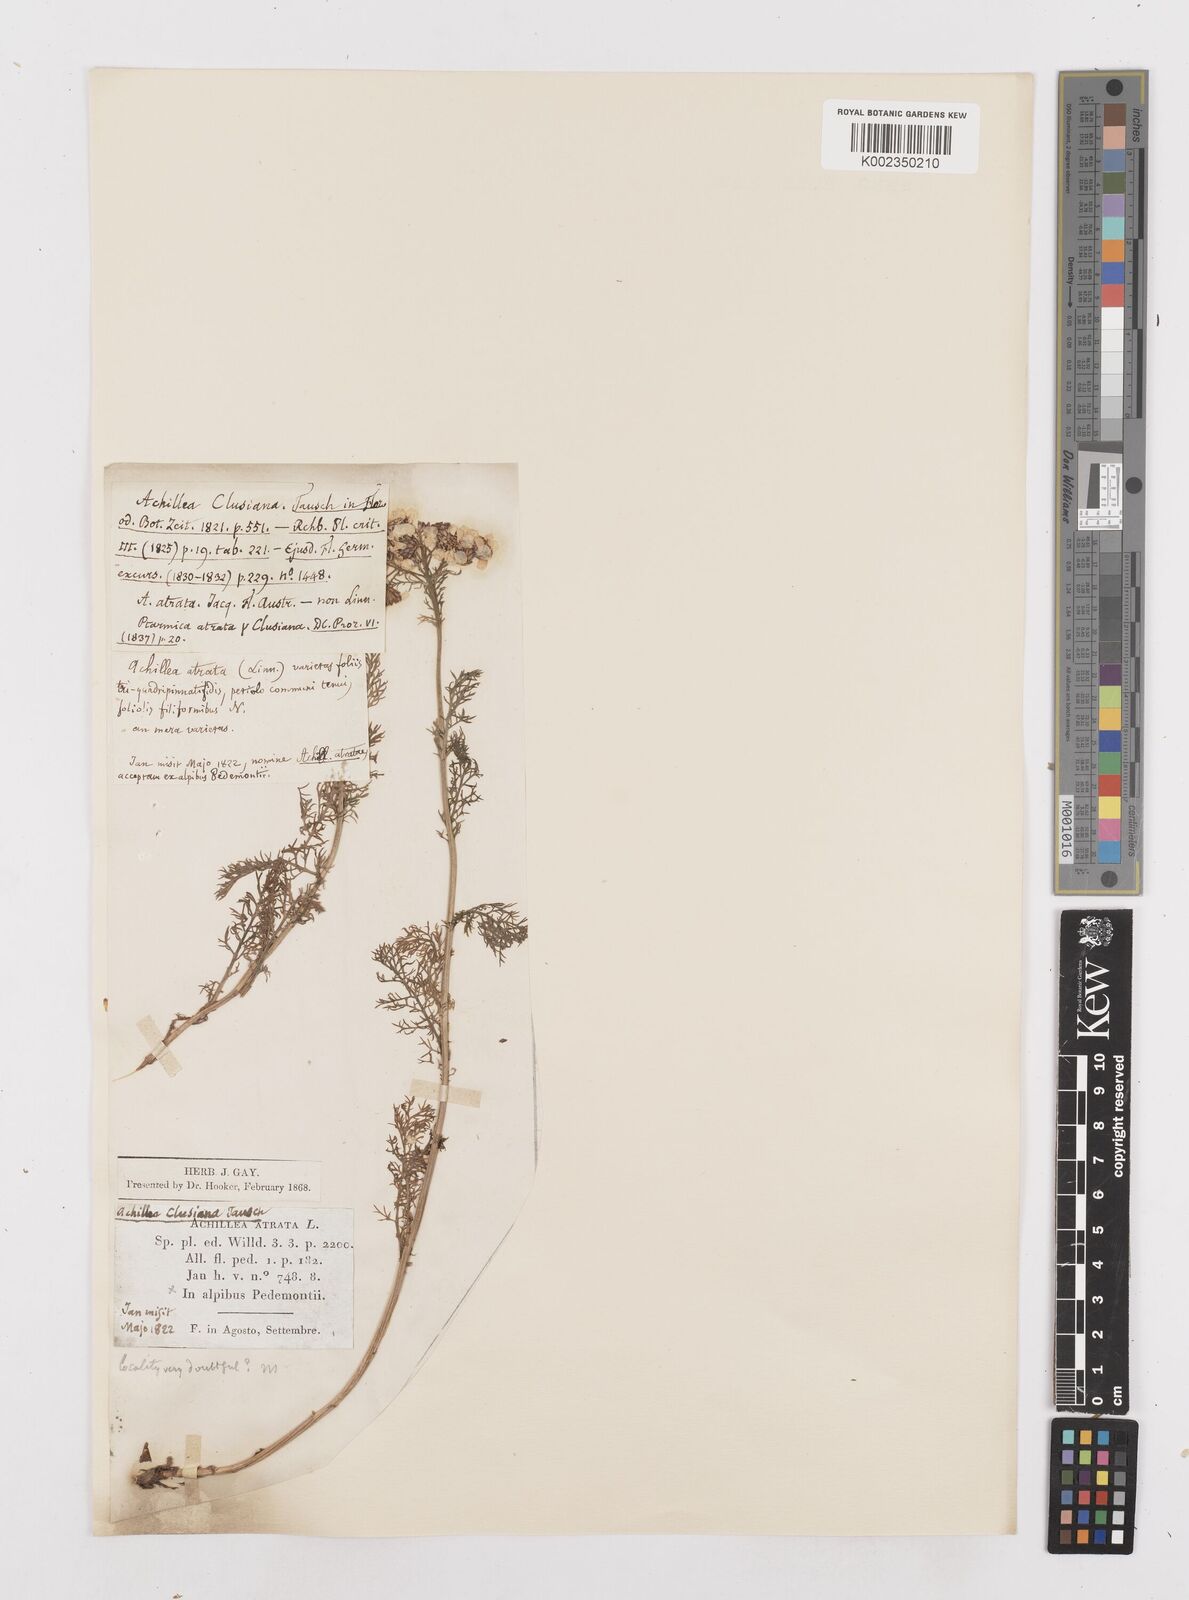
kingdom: Plantae
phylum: Tracheophyta
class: Magnoliopsida
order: Asterales
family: Asteraceae
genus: Achillea
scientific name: Achillea clusiana
